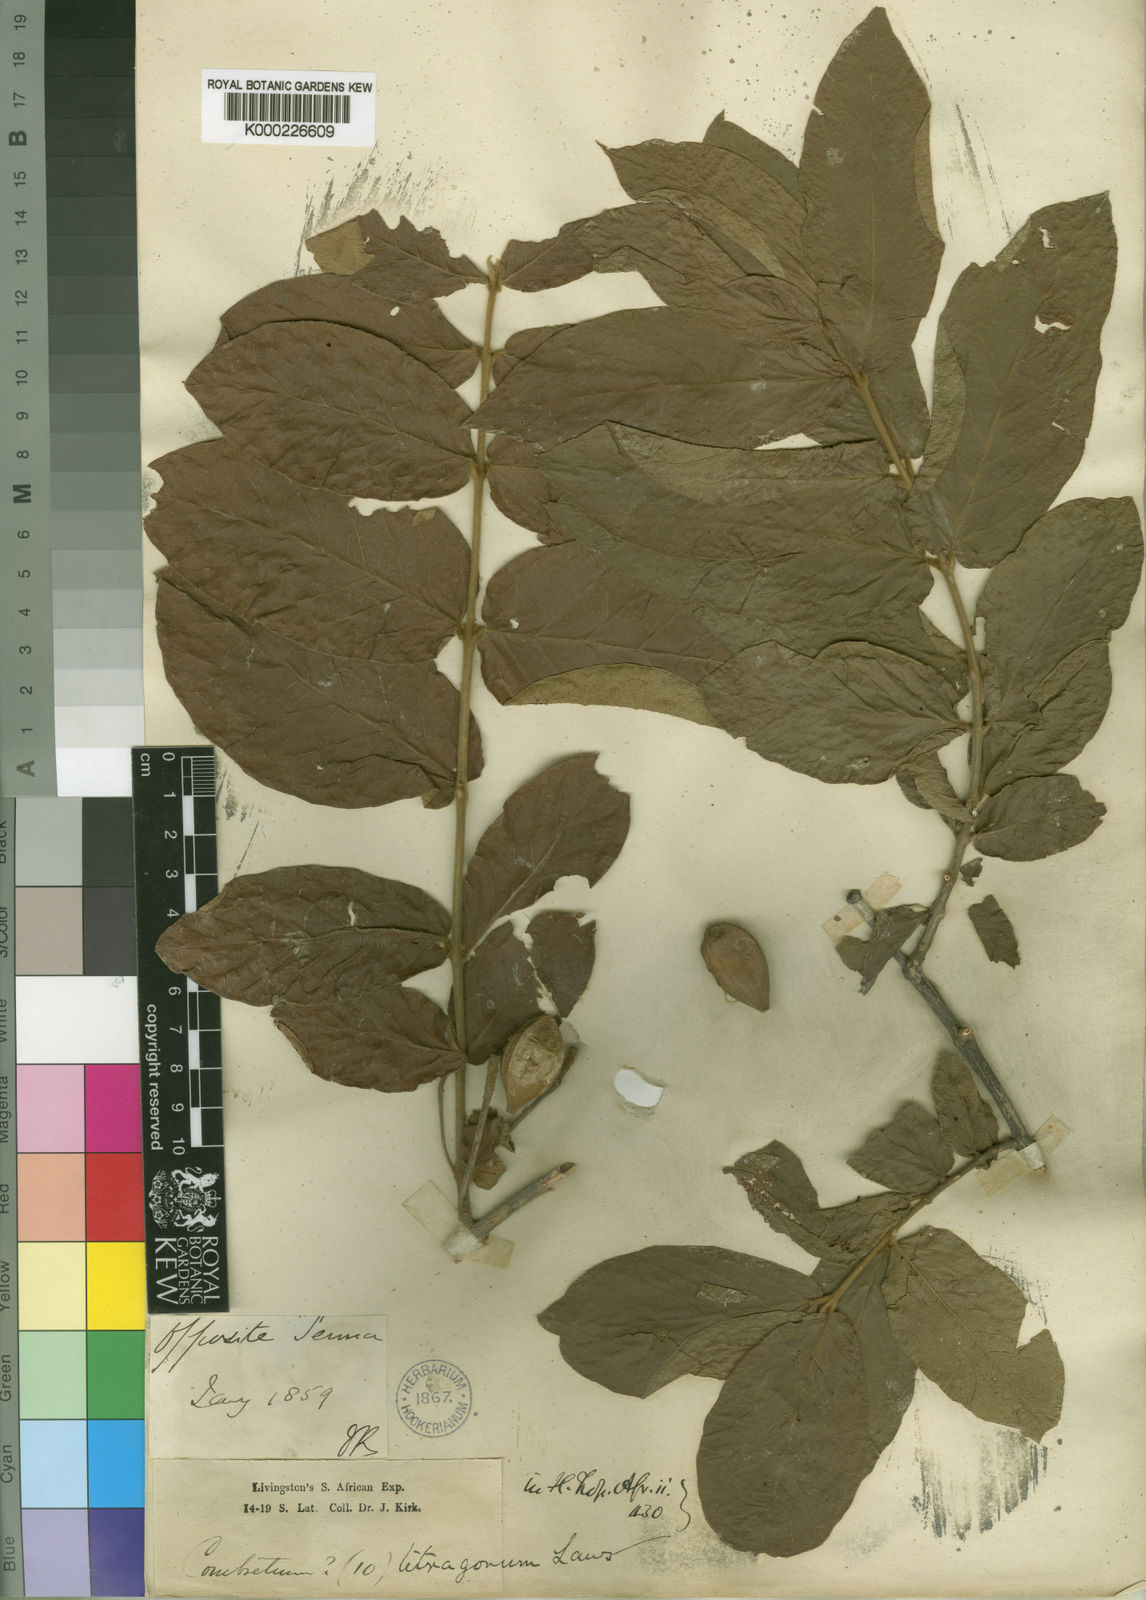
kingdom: Plantae
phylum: Tracheophyta
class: Magnoliopsida
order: Myrtales
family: Combretaceae
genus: Combretum
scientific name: Combretum pisoniiflorum
